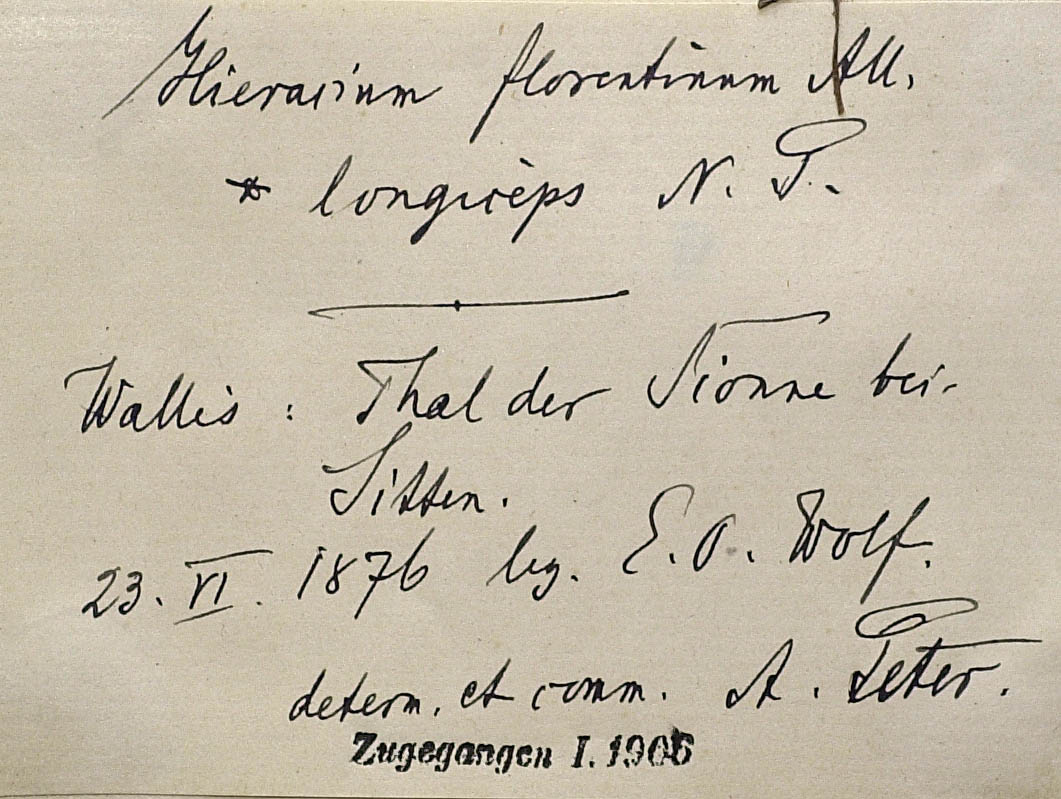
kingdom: Plantae
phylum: Tracheophyta
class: Magnoliopsida
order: Asterales
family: Asteraceae
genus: Pilosella
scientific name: Pilosella piloselloides
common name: Glaucous king-devil
